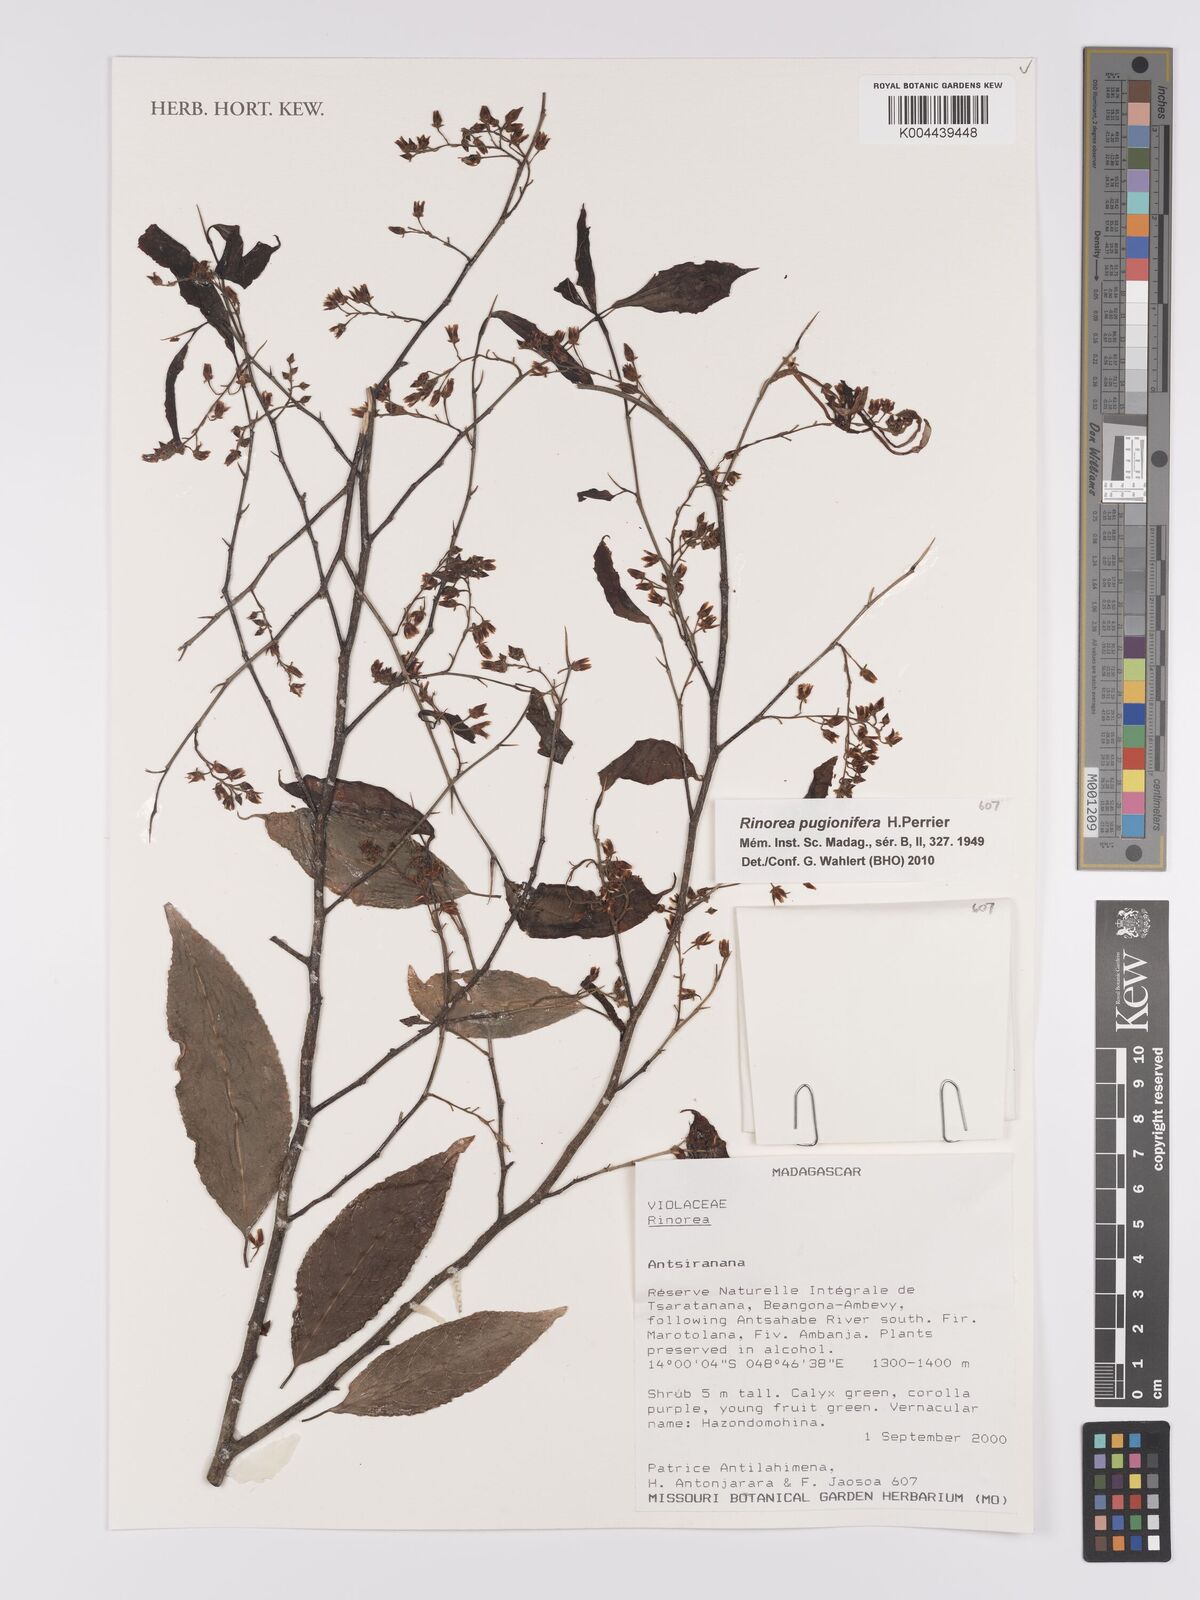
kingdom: Plantae
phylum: Tracheophyta
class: Magnoliopsida
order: Malpighiales
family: Violaceae
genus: Rinorea
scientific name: Rinorea pugionifera
